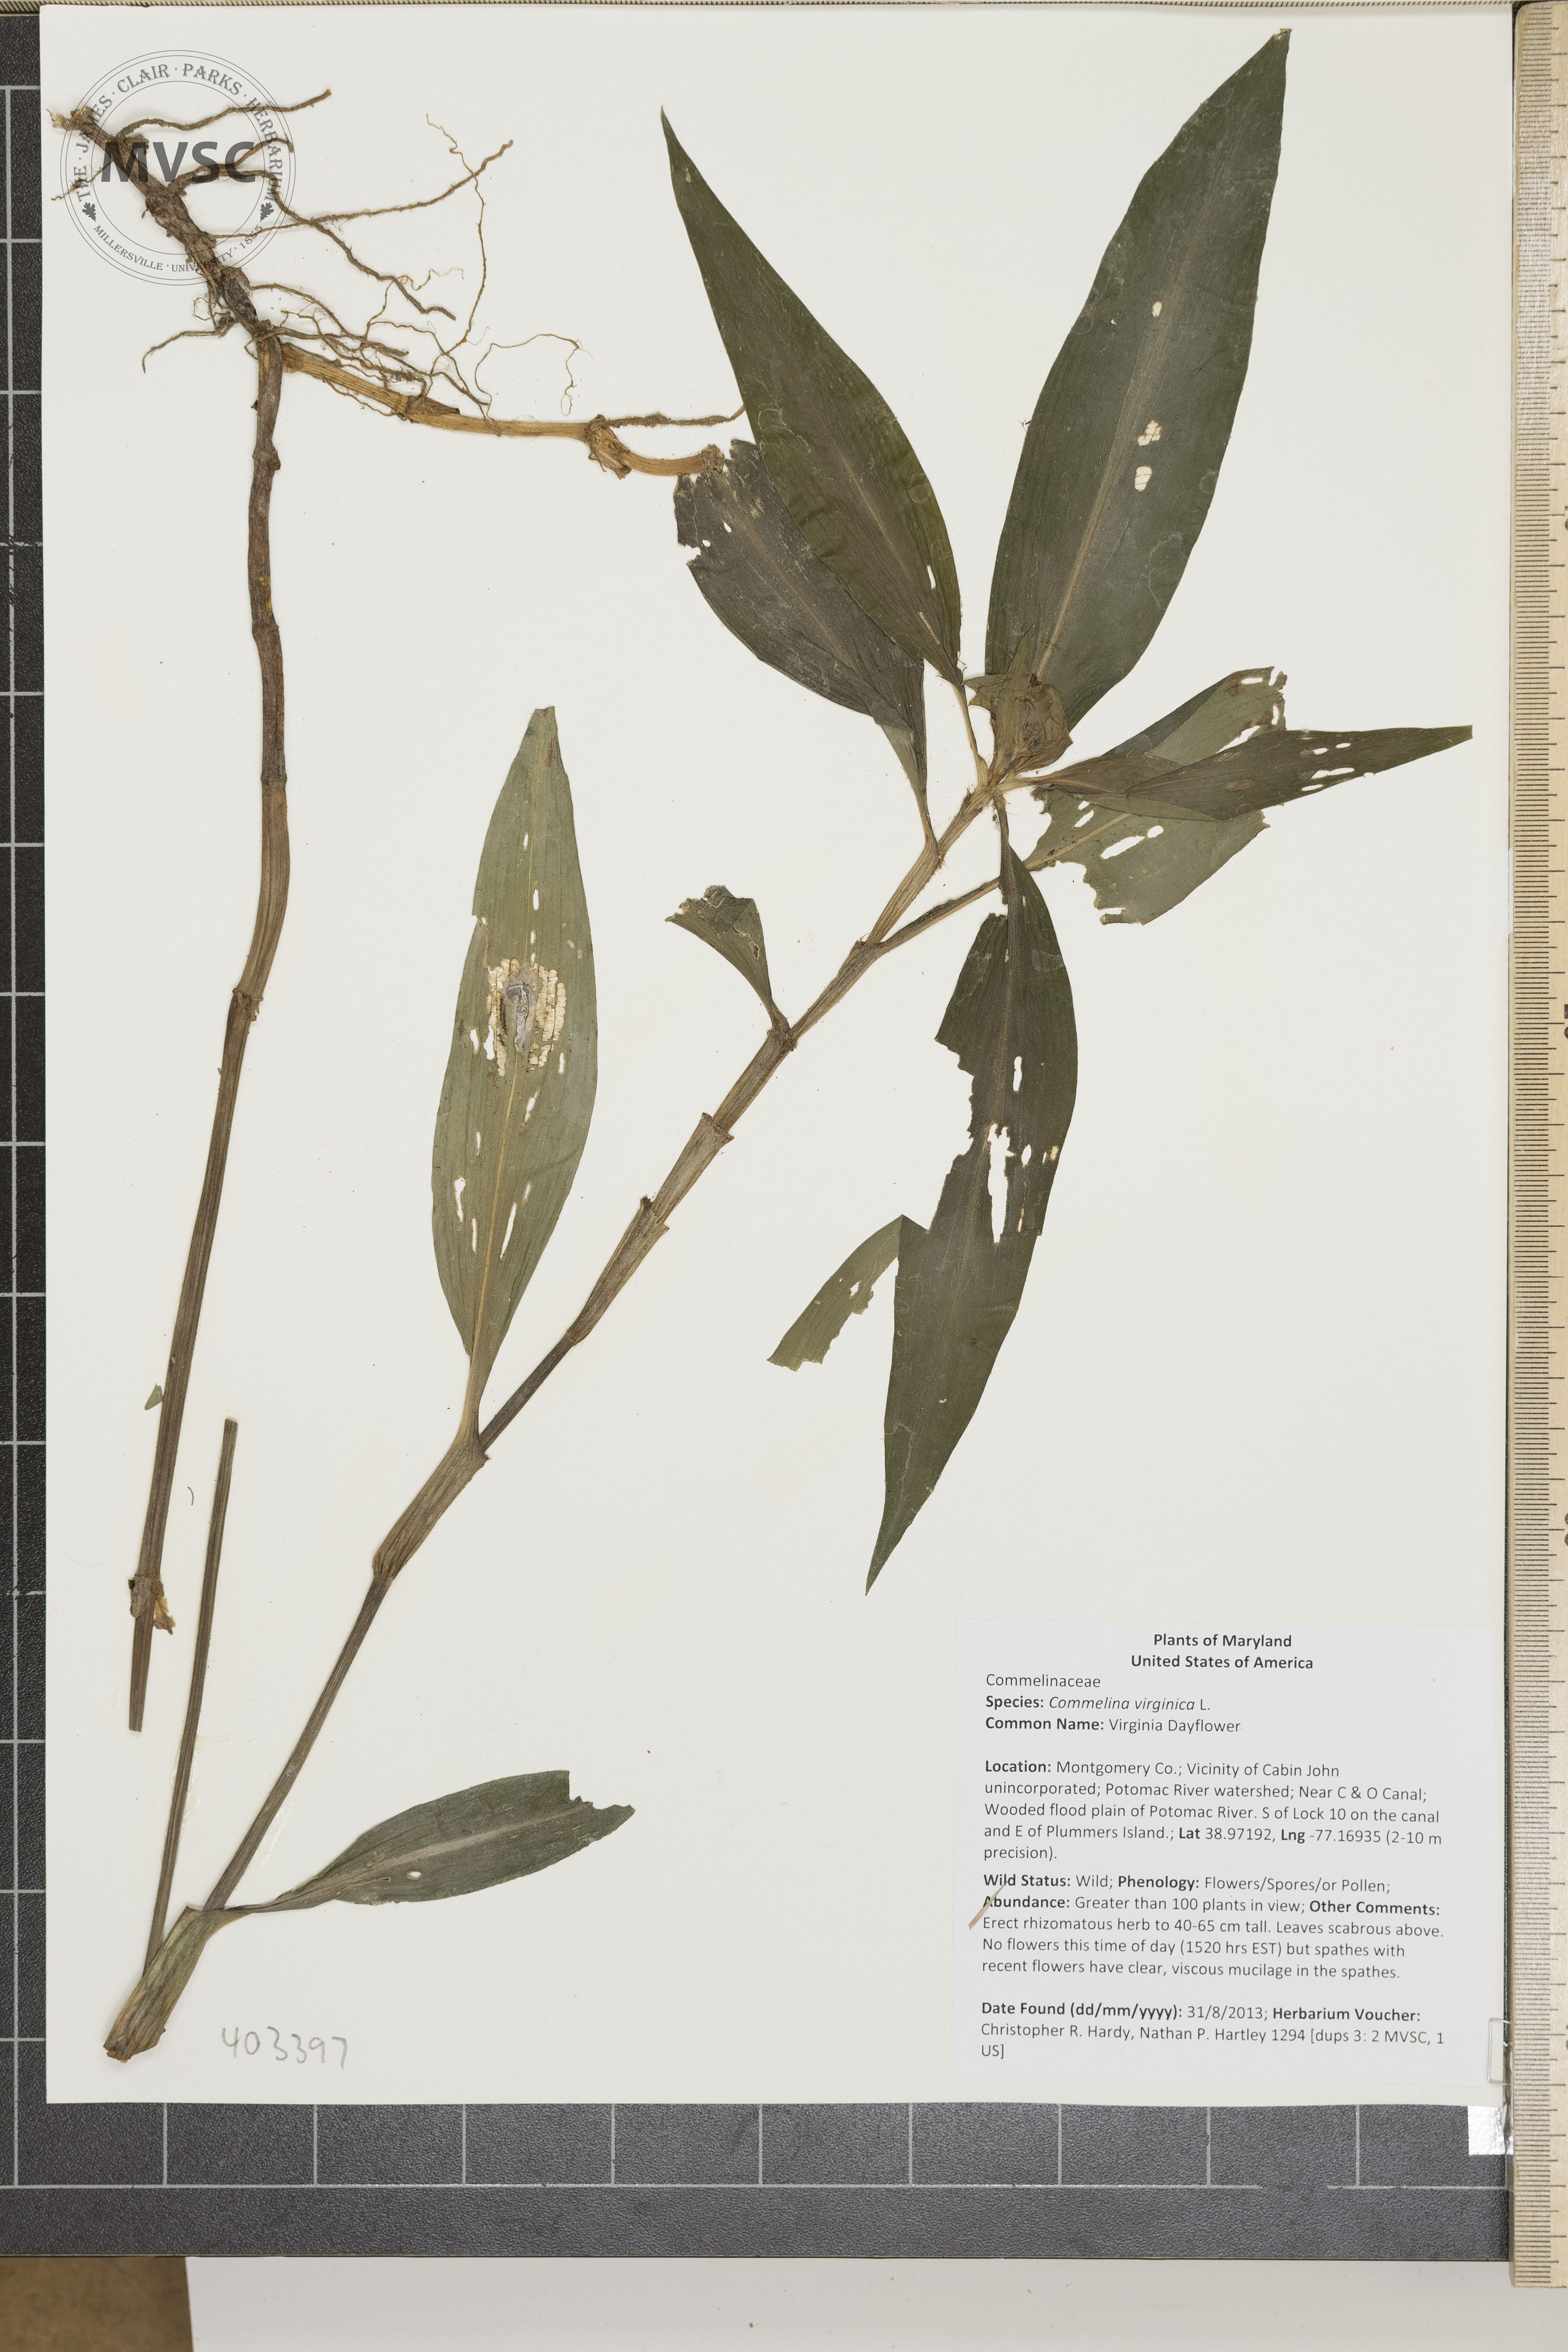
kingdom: Plantae
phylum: Tracheophyta
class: Liliopsida
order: Commelinales
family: Commelinaceae
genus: Commelina
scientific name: Commelina virginica
